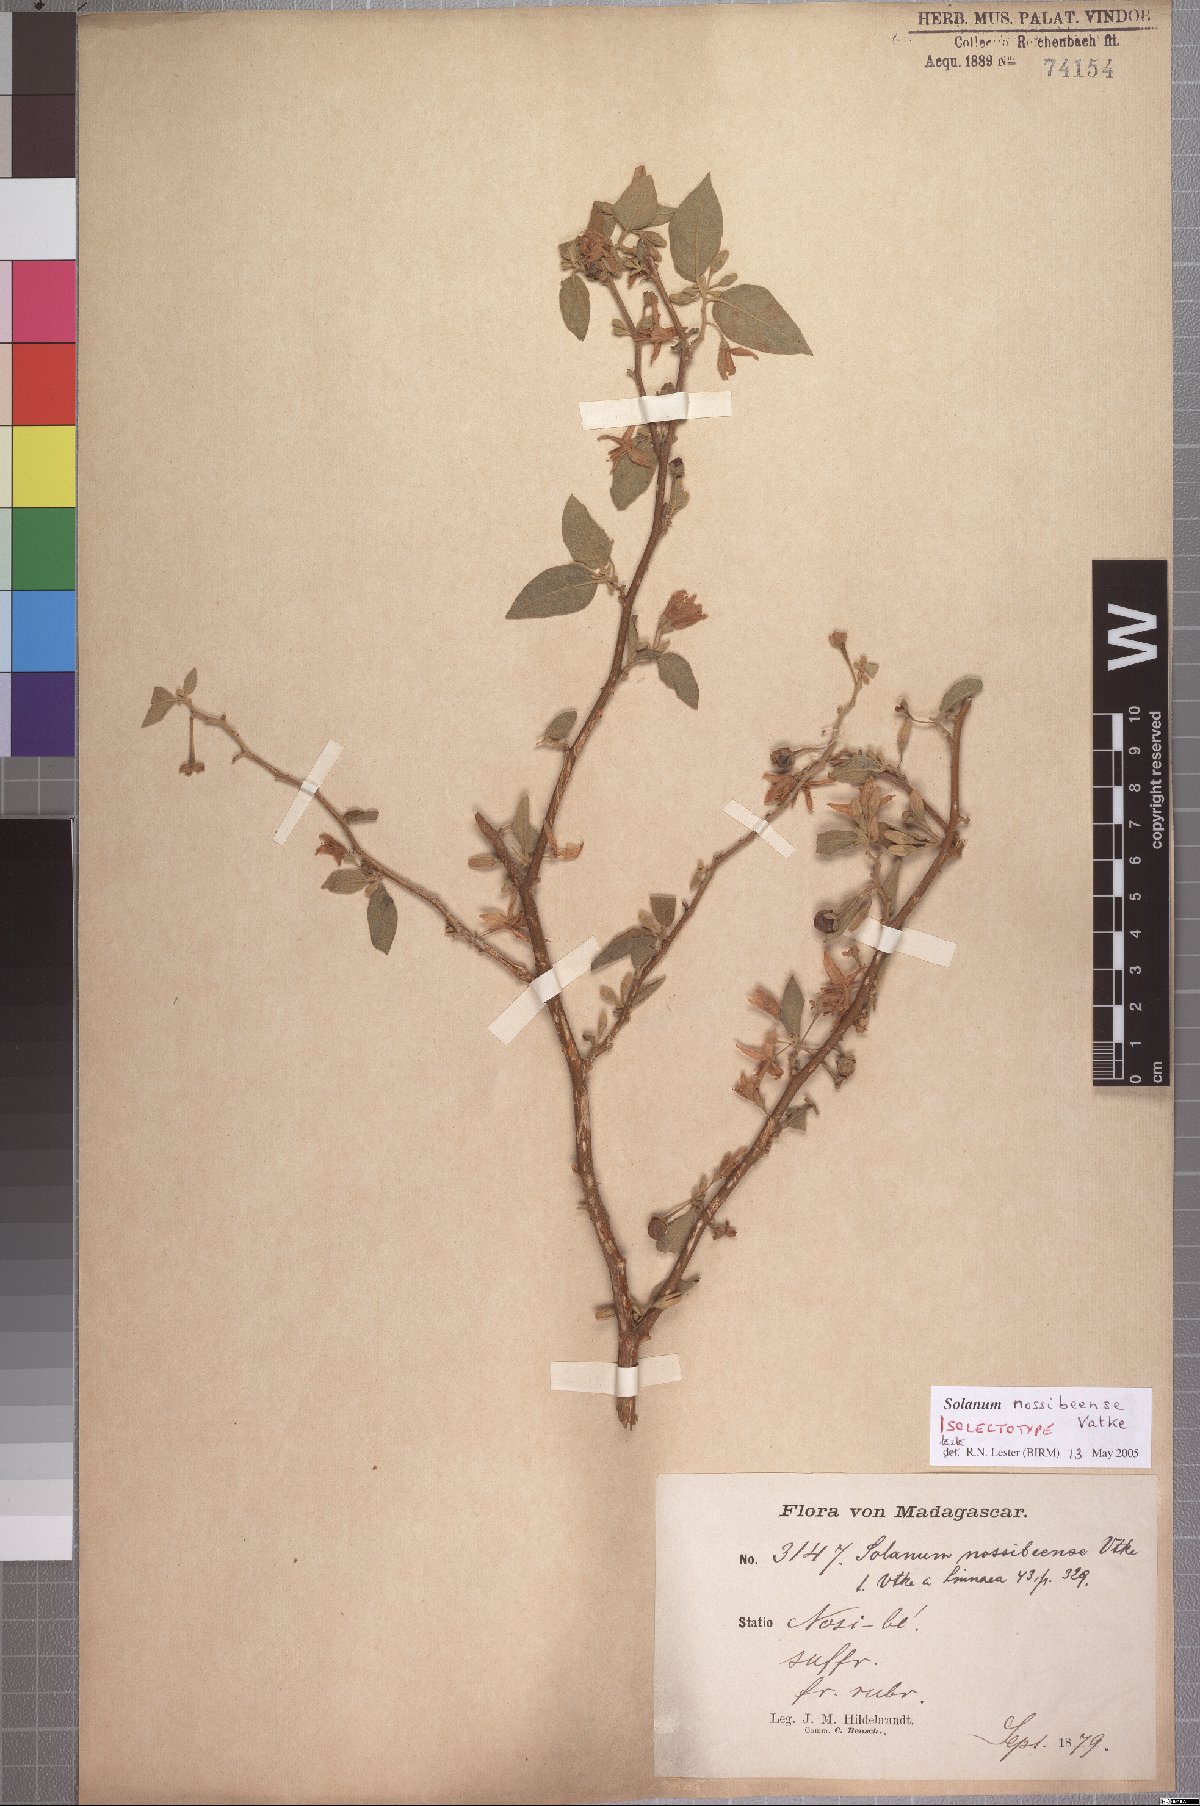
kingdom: Plantae
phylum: Tracheophyta
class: Magnoliopsida
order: Solanales
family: Solanaceae
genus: Solanum
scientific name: Solanum erythracanthum
